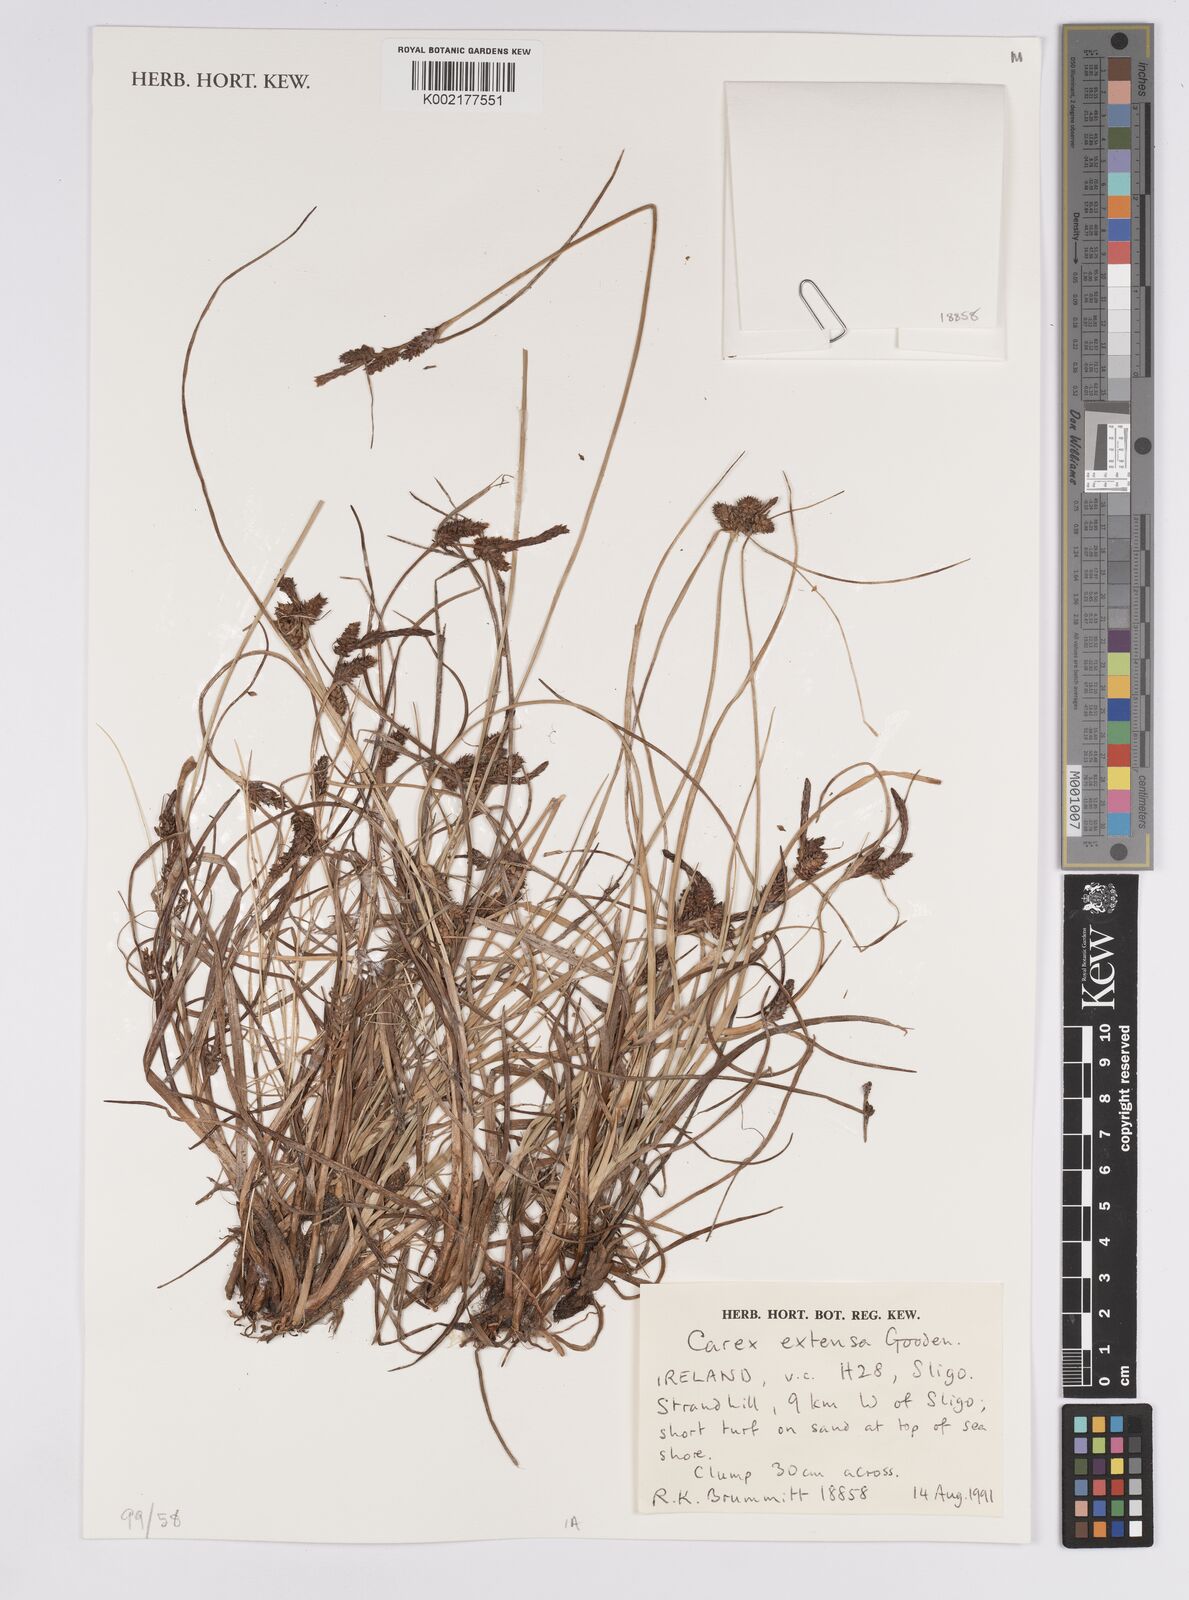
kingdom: Plantae
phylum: Tracheophyta
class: Liliopsida
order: Poales
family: Cyperaceae
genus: Carex
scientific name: Carex extensa
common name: Long-bracted sedge
